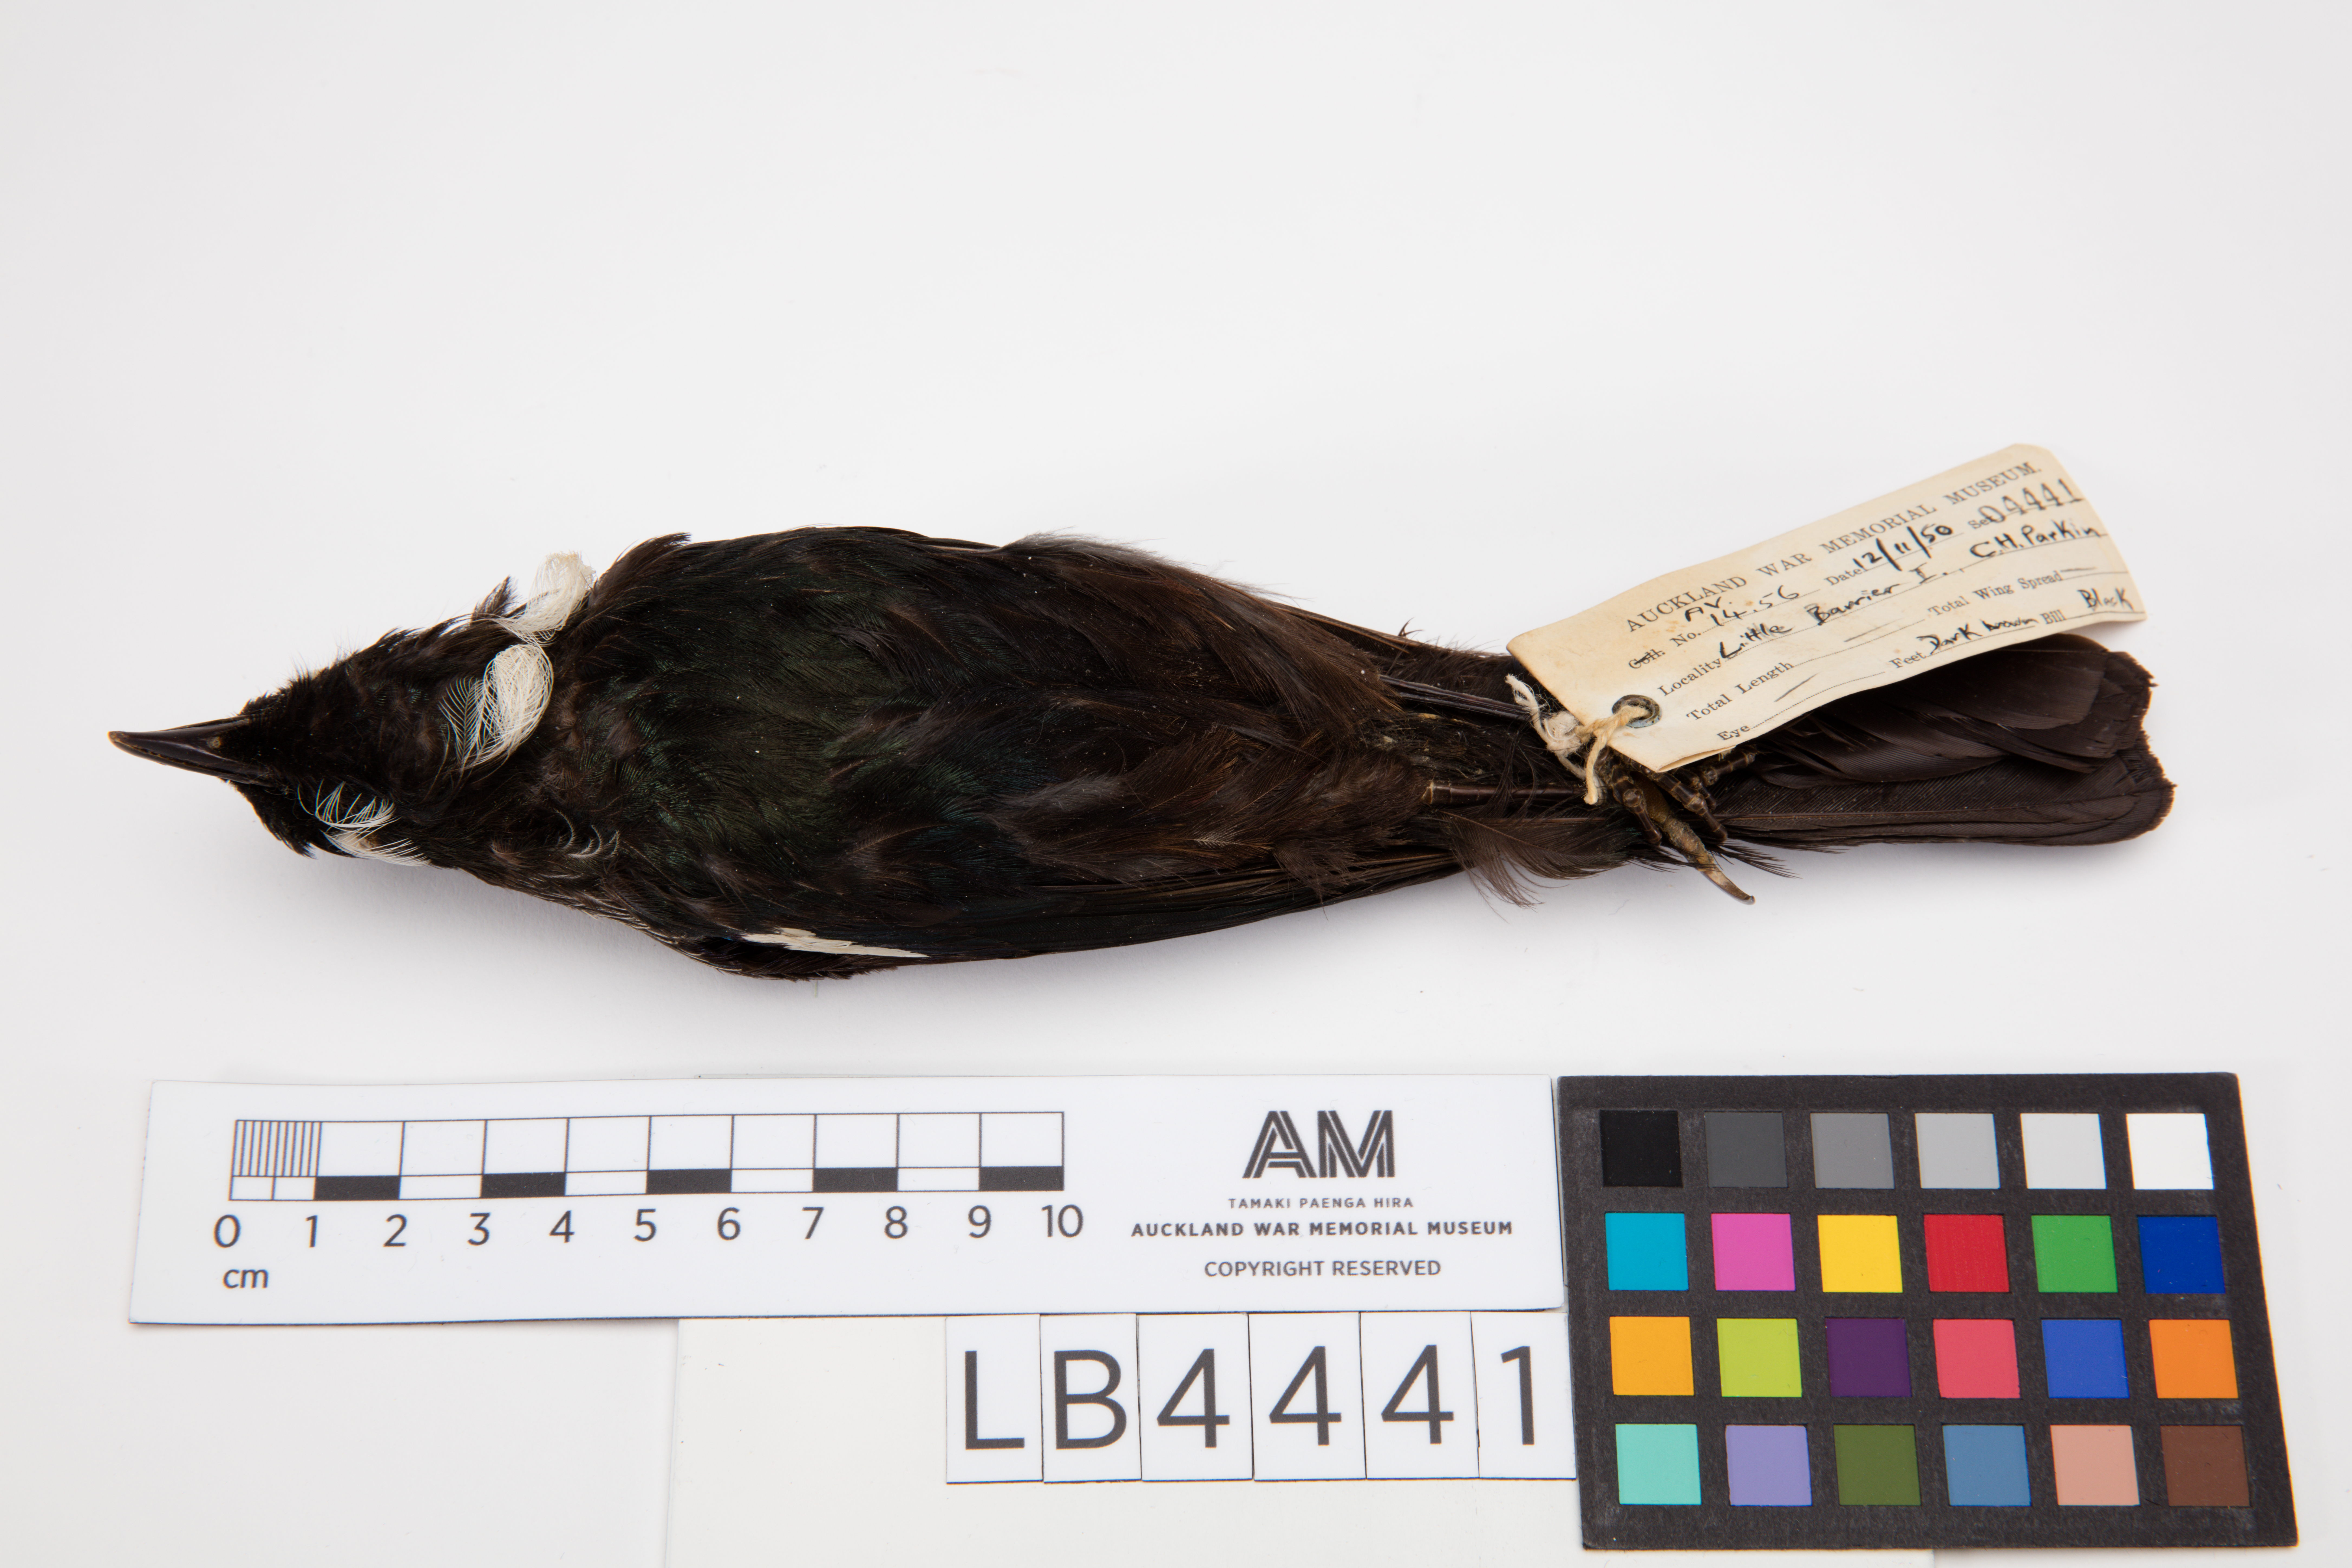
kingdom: Animalia
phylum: Chordata
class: Aves
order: Passeriformes
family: Meliphagidae
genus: Prosthemadera
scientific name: Prosthemadera novaeseelandiae
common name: Tui
